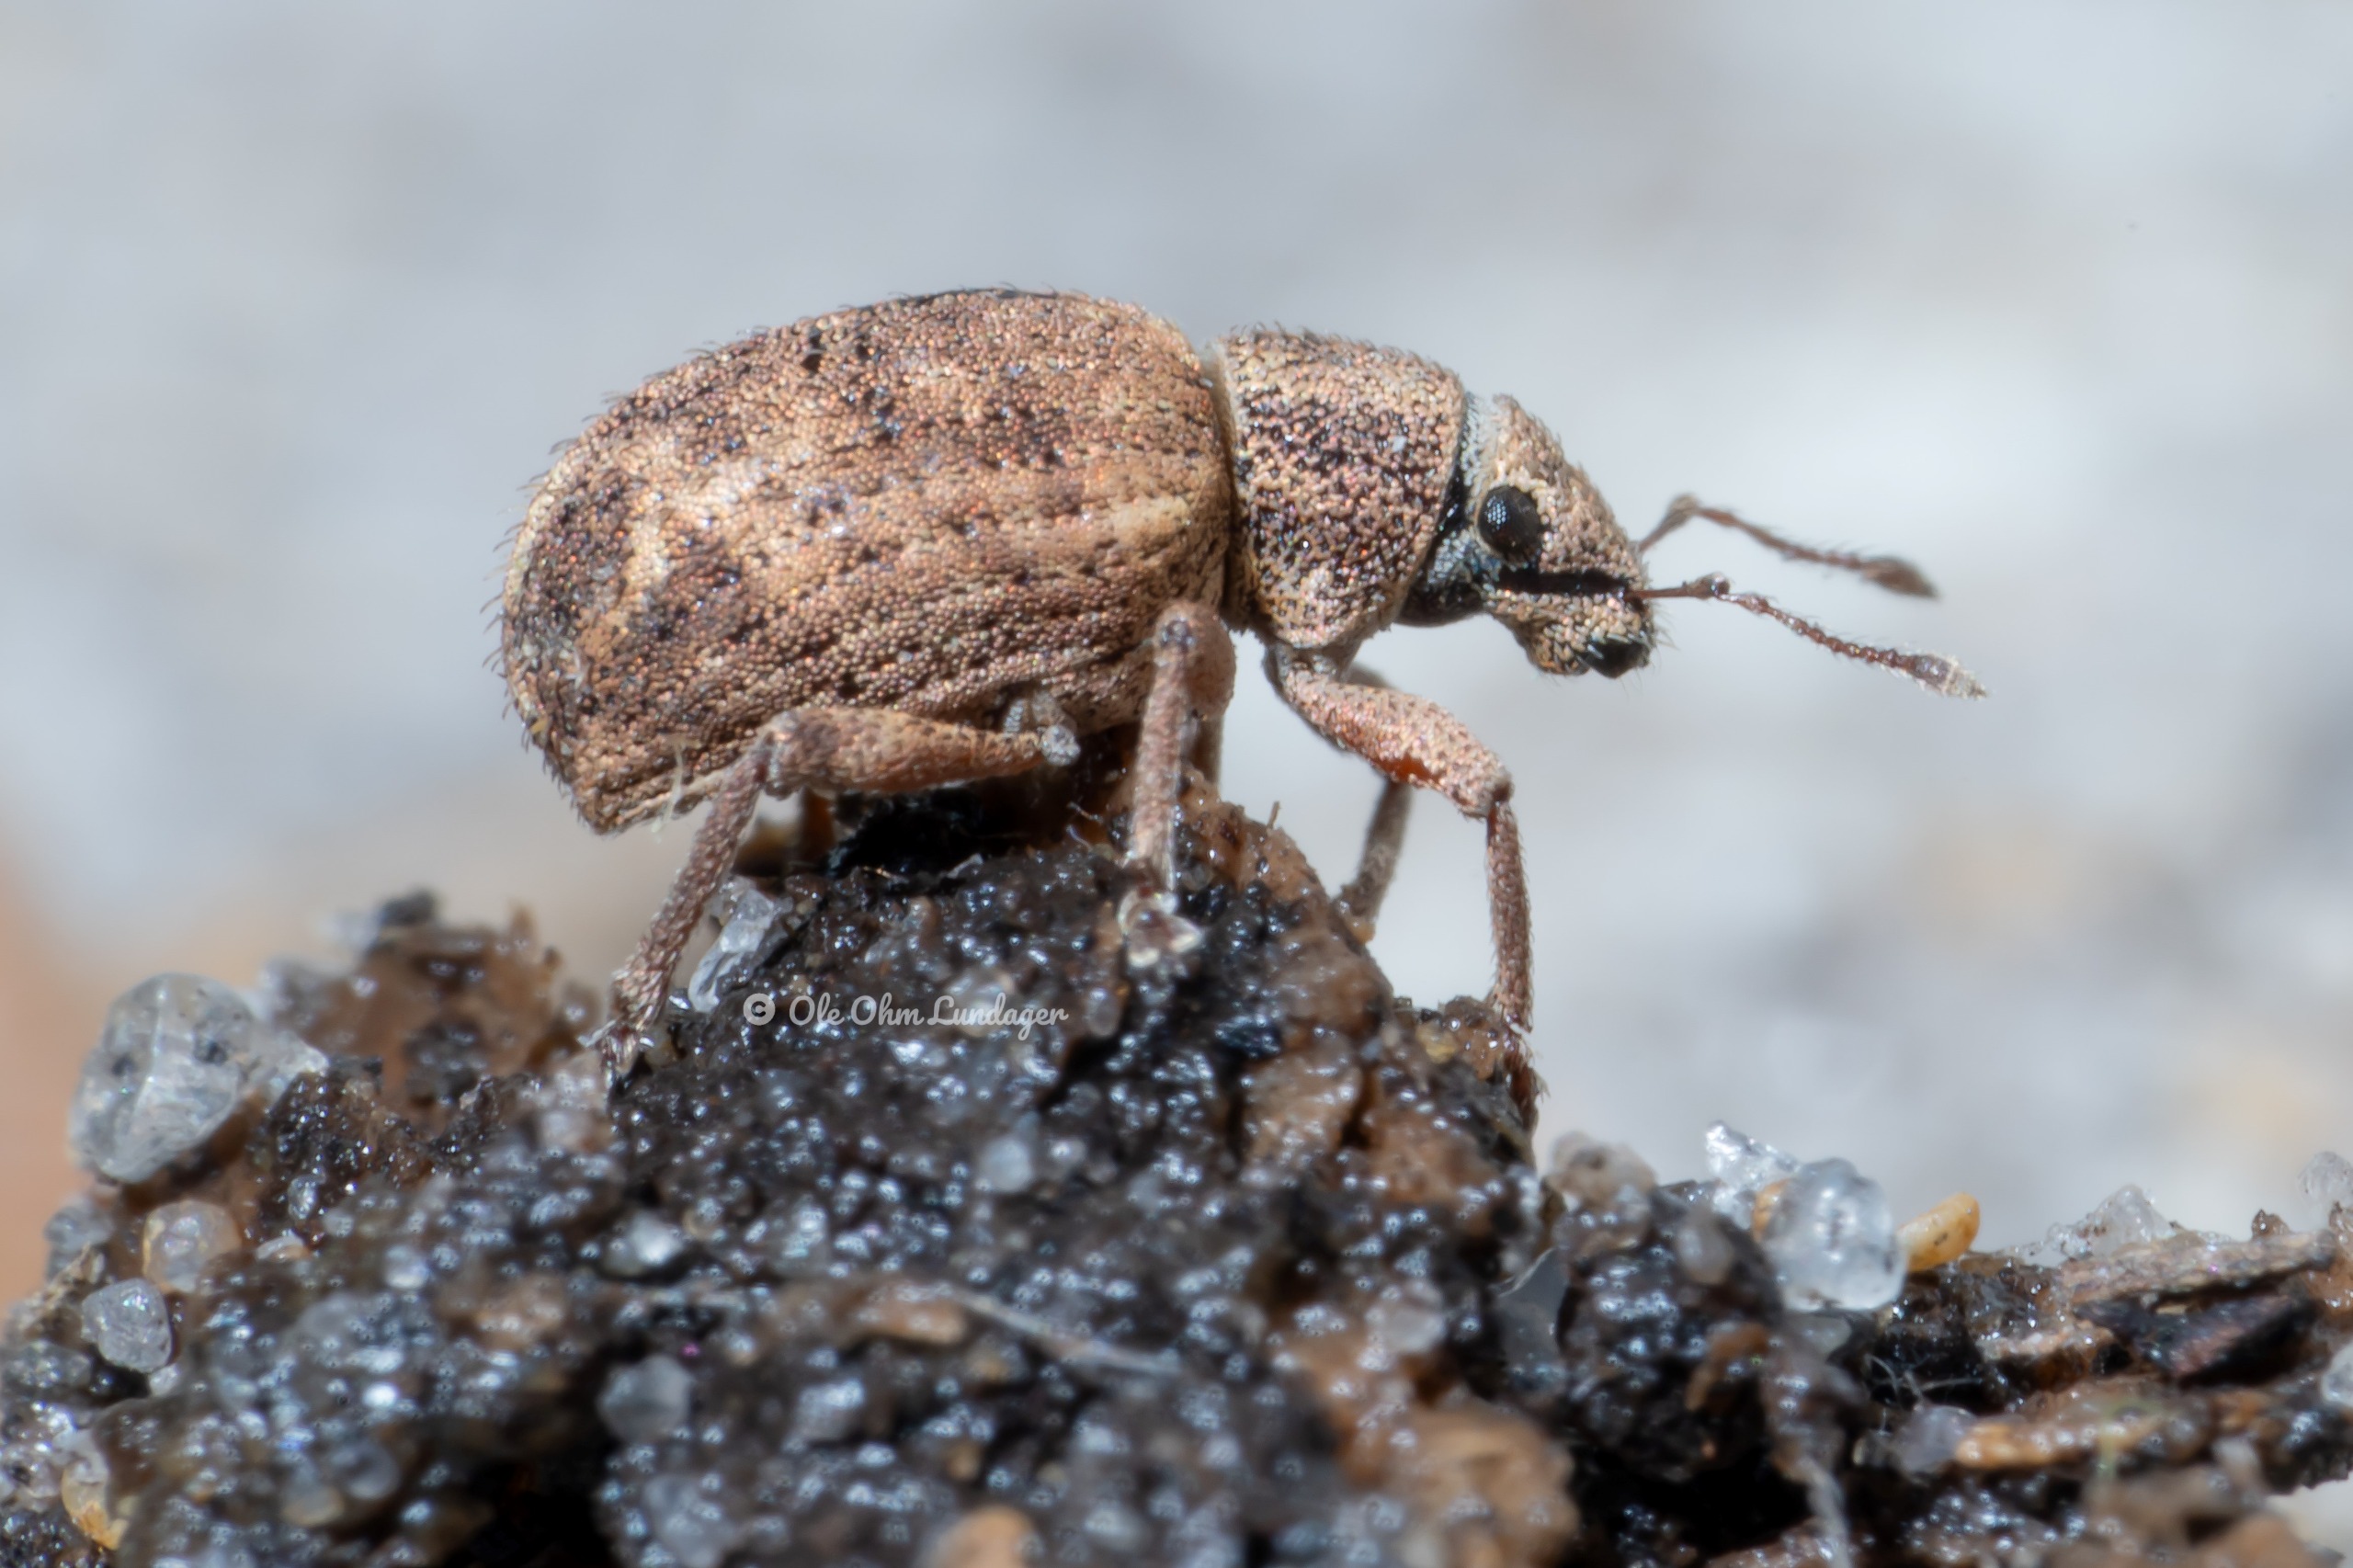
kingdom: Animalia
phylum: Arthropoda
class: Insecta
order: Coleoptera
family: Curculionidae
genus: Strophosoma
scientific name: Strophosoma melanogrammum
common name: Stribet gråsnude
